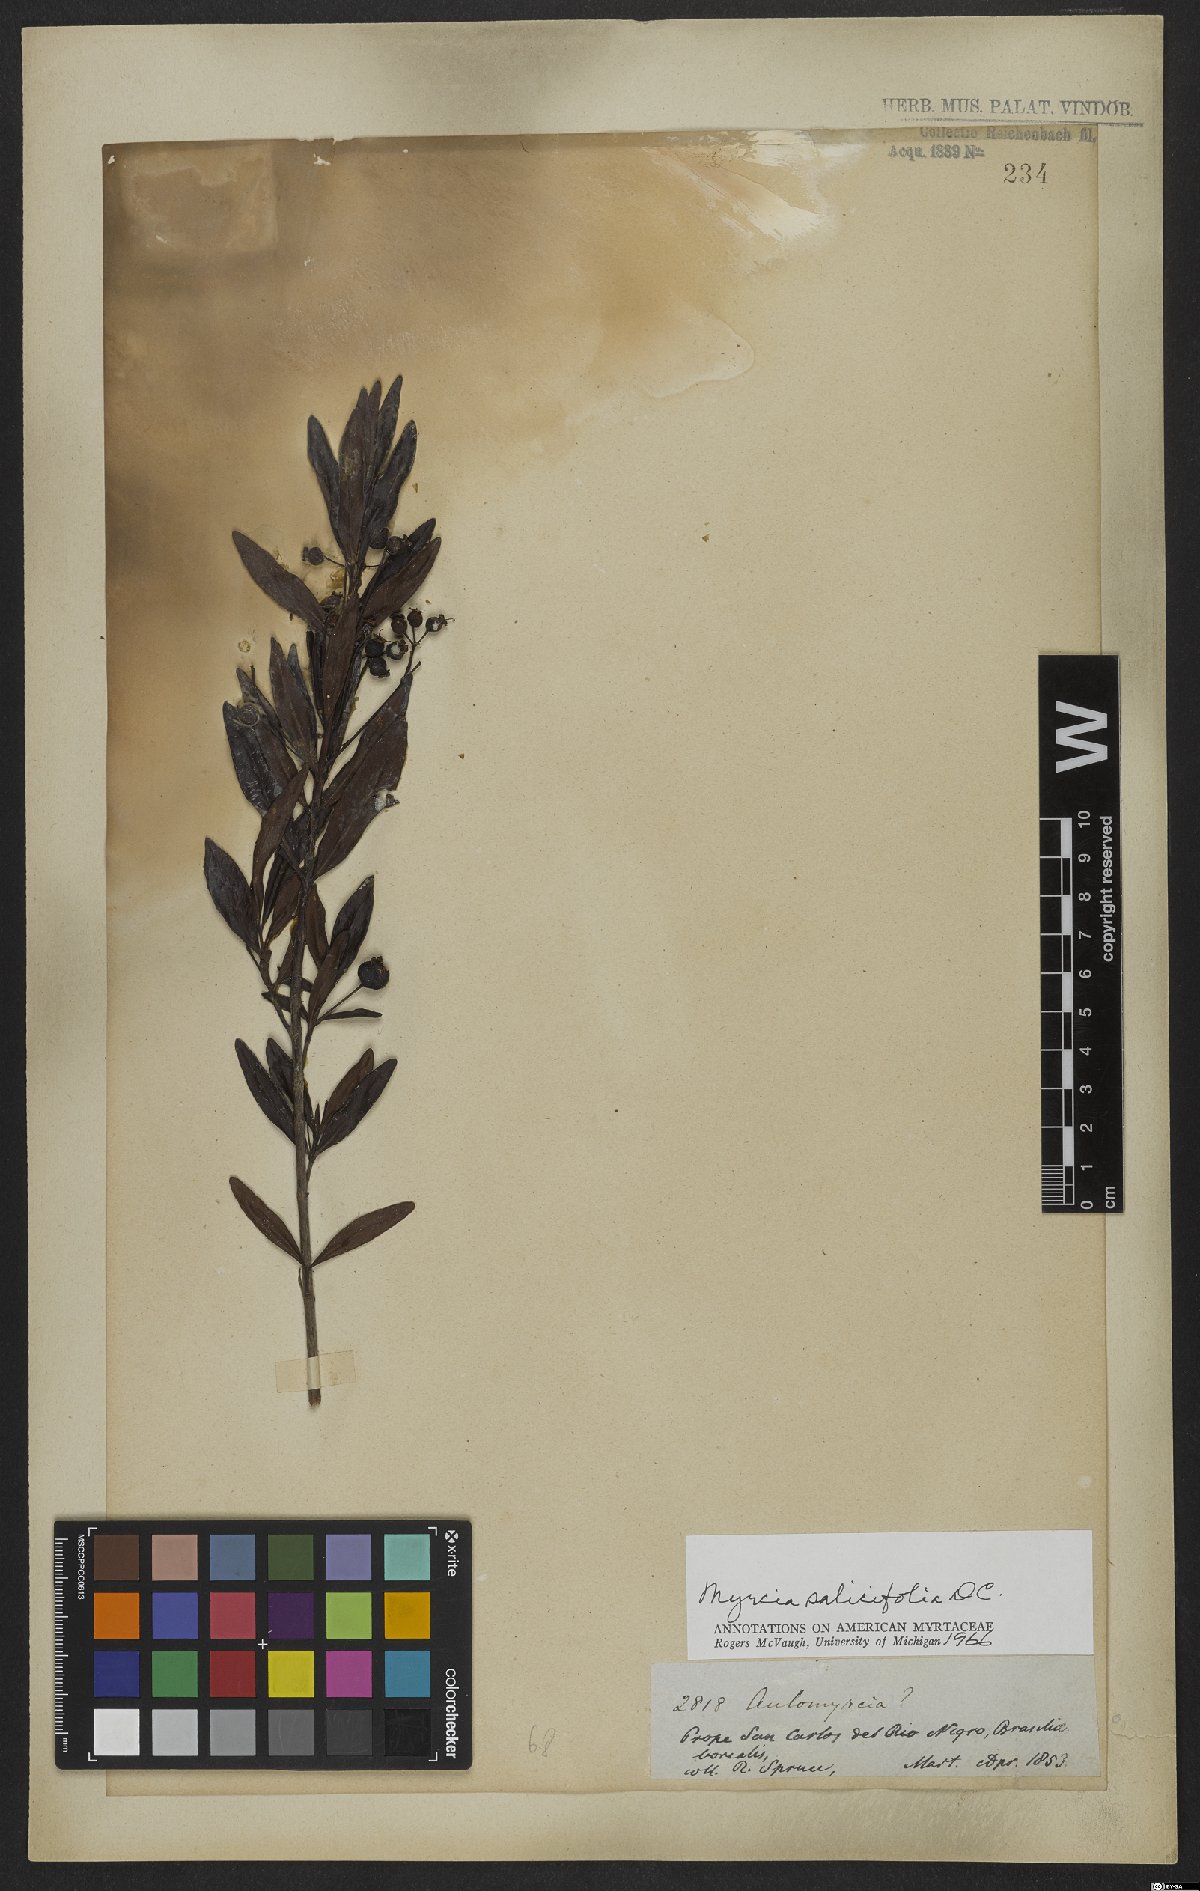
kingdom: Plantae
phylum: Tracheophyta
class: Magnoliopsida
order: Myrtales
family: Myrtaceae
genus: Myrcia
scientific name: Myrcia salicifolia
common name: Insulin plant
